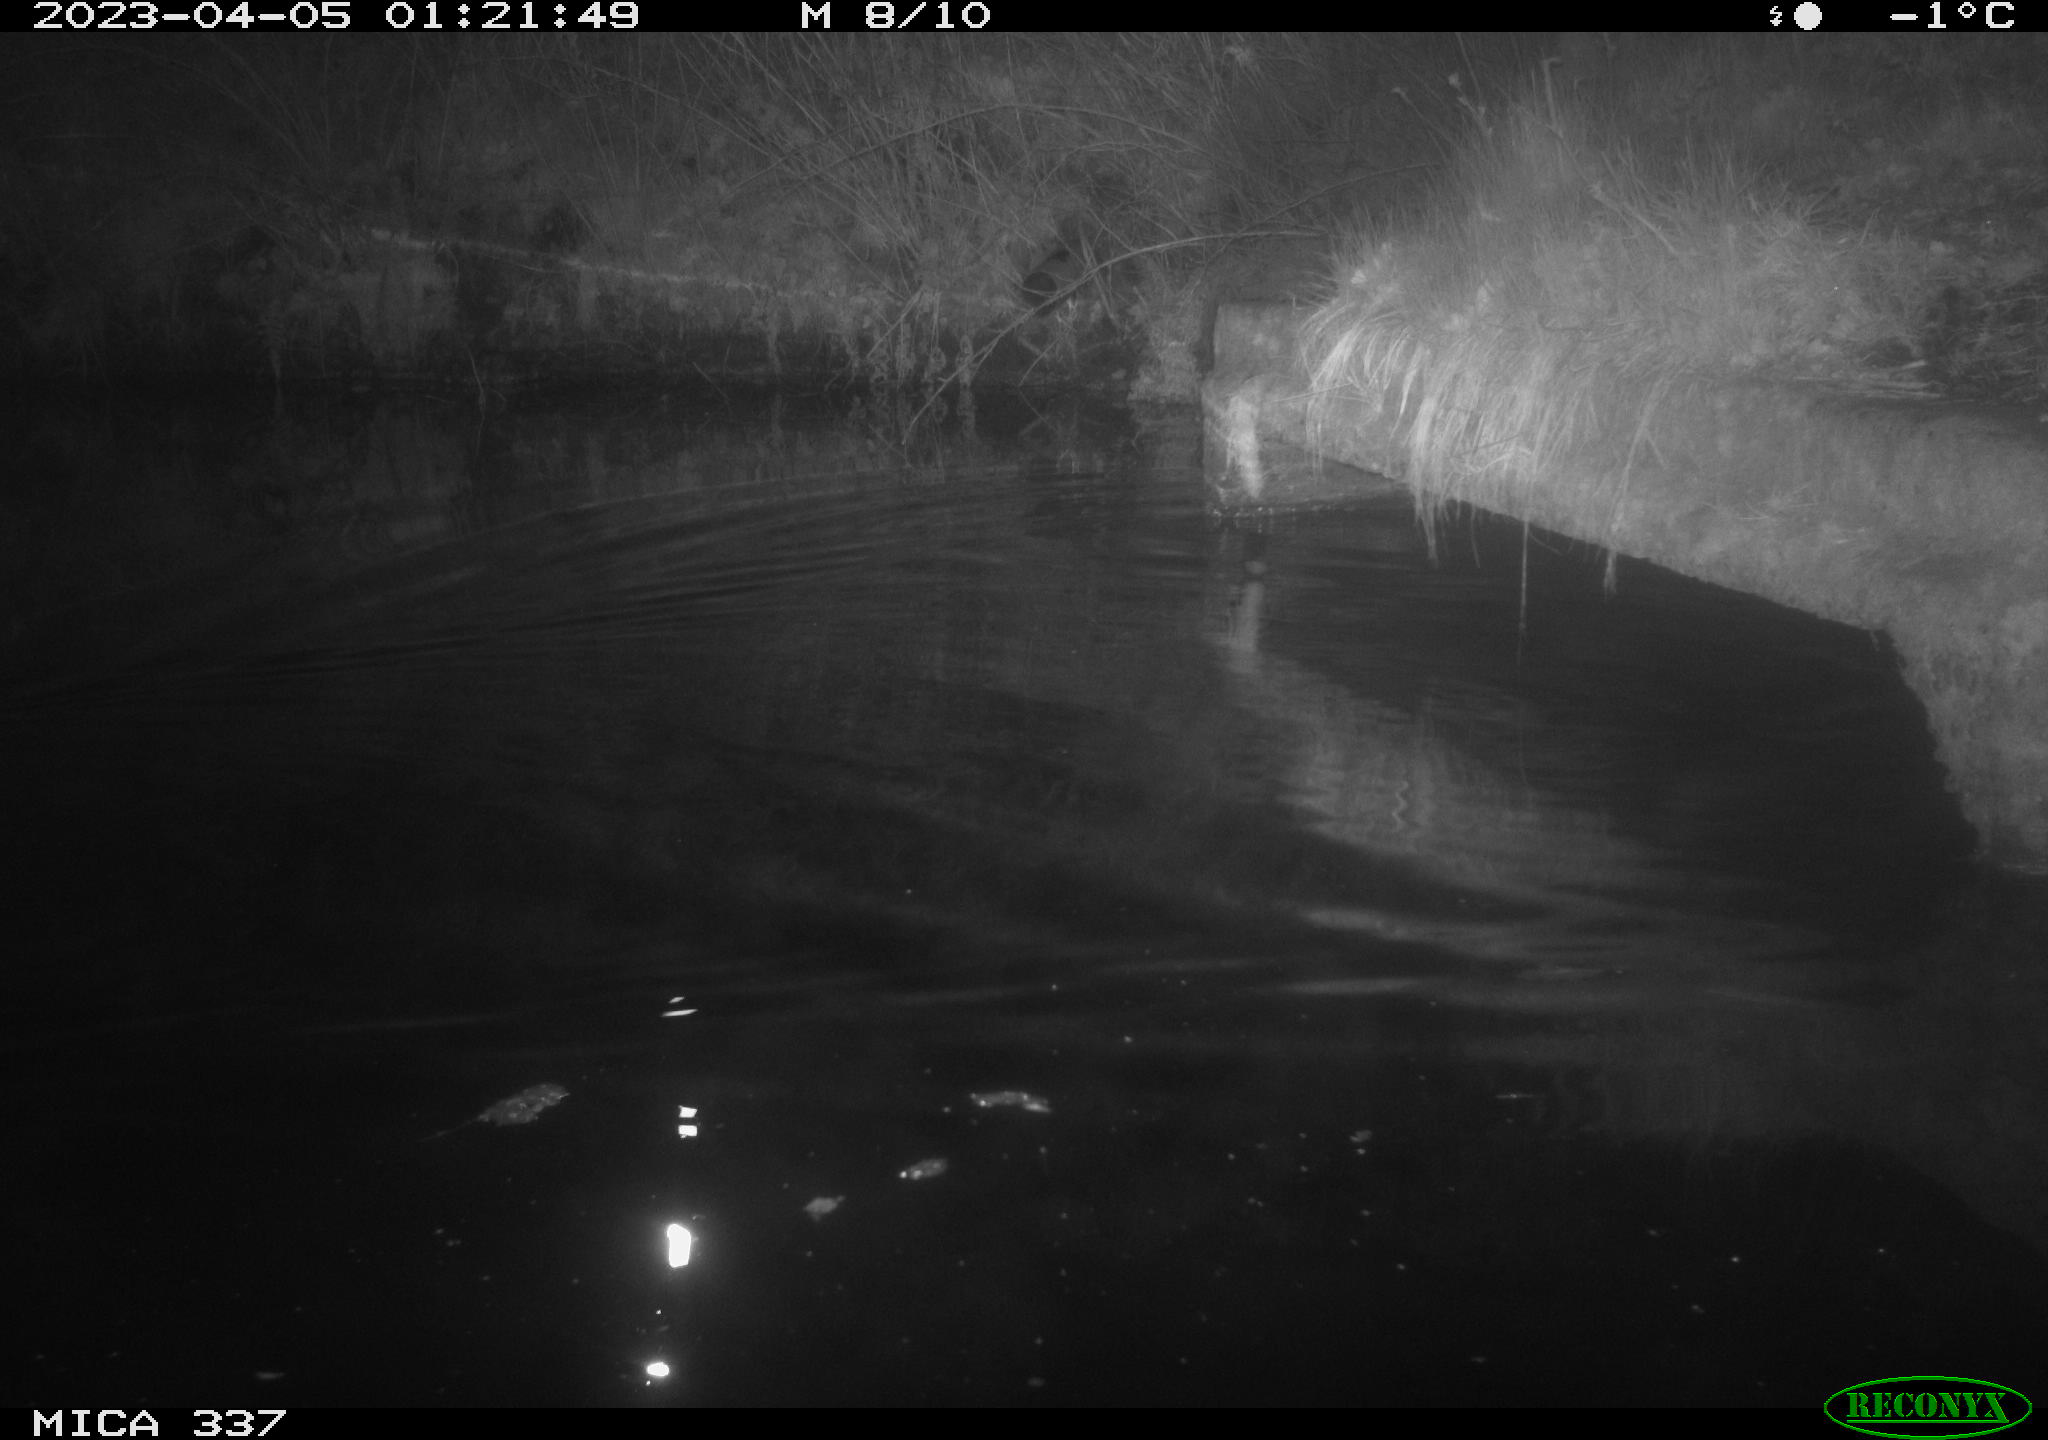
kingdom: Animalia
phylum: Chordata
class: Mammalia
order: Rodentia
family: Muridae
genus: Rattus
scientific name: Rattus norvegicus
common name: Brown rat
